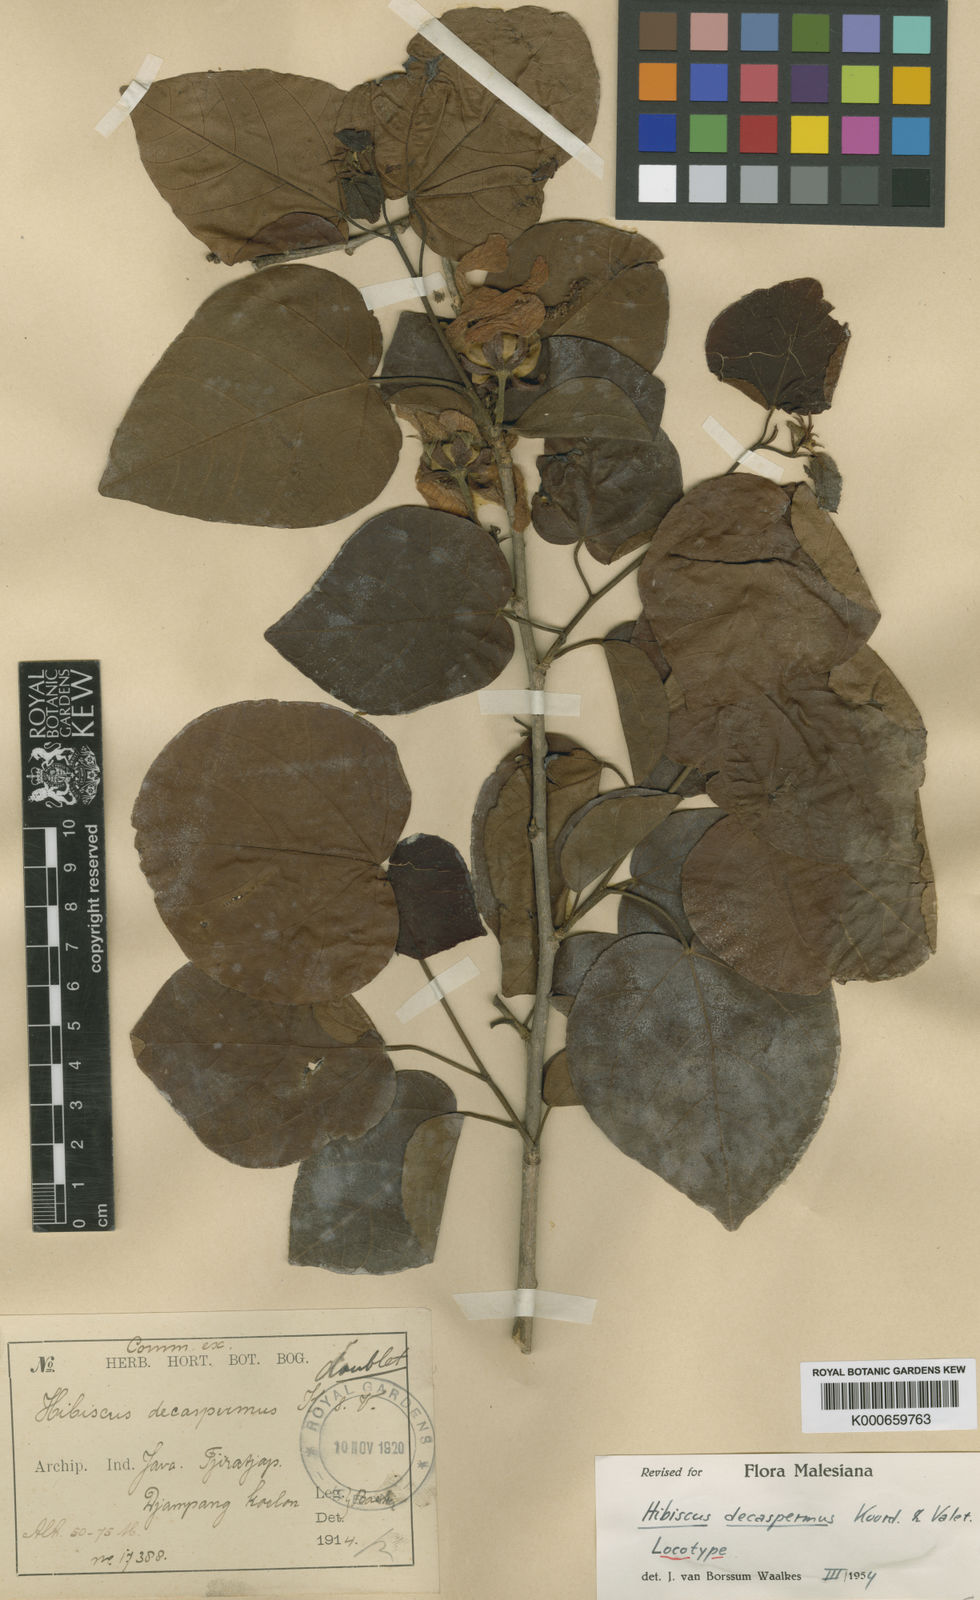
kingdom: Plantae
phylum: Tracheophyta
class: Magnoliopsida
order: Malvales
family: Malvaceae
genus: Hibiscus
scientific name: Hibiscus decaspermus
